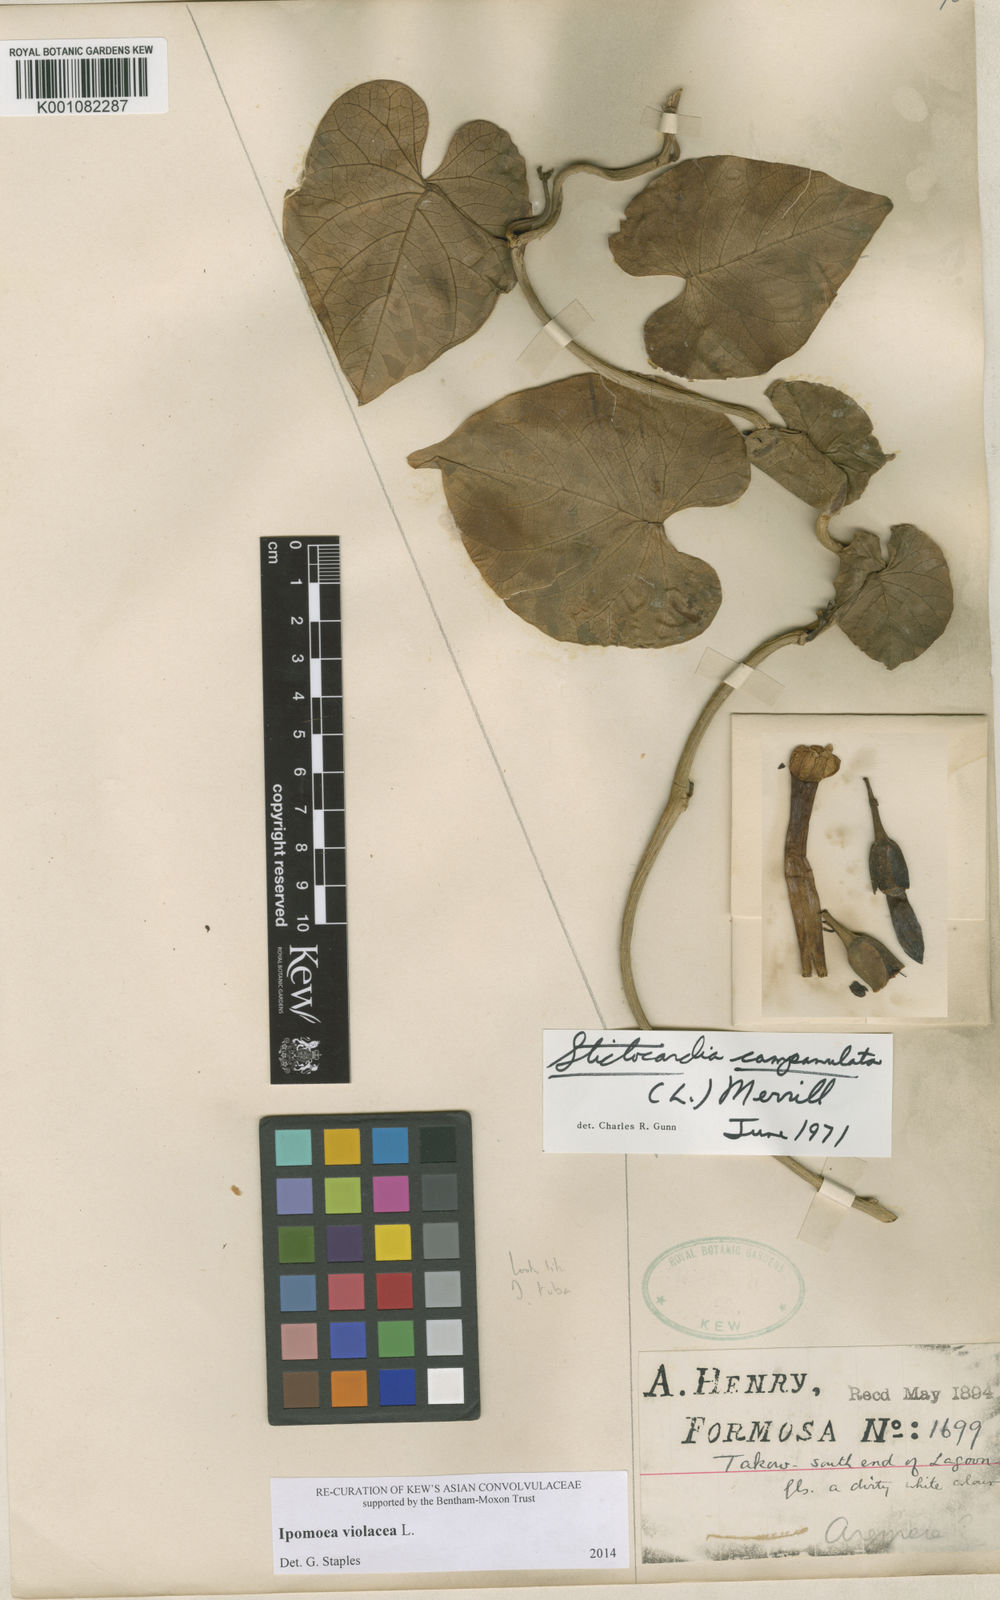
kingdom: Plantae
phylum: Tracheophyta
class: Magnoliopsida
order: Solanales
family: Convolvulaceae
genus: Ipomoea
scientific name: Ipomoea violacea
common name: Beach moonflower
